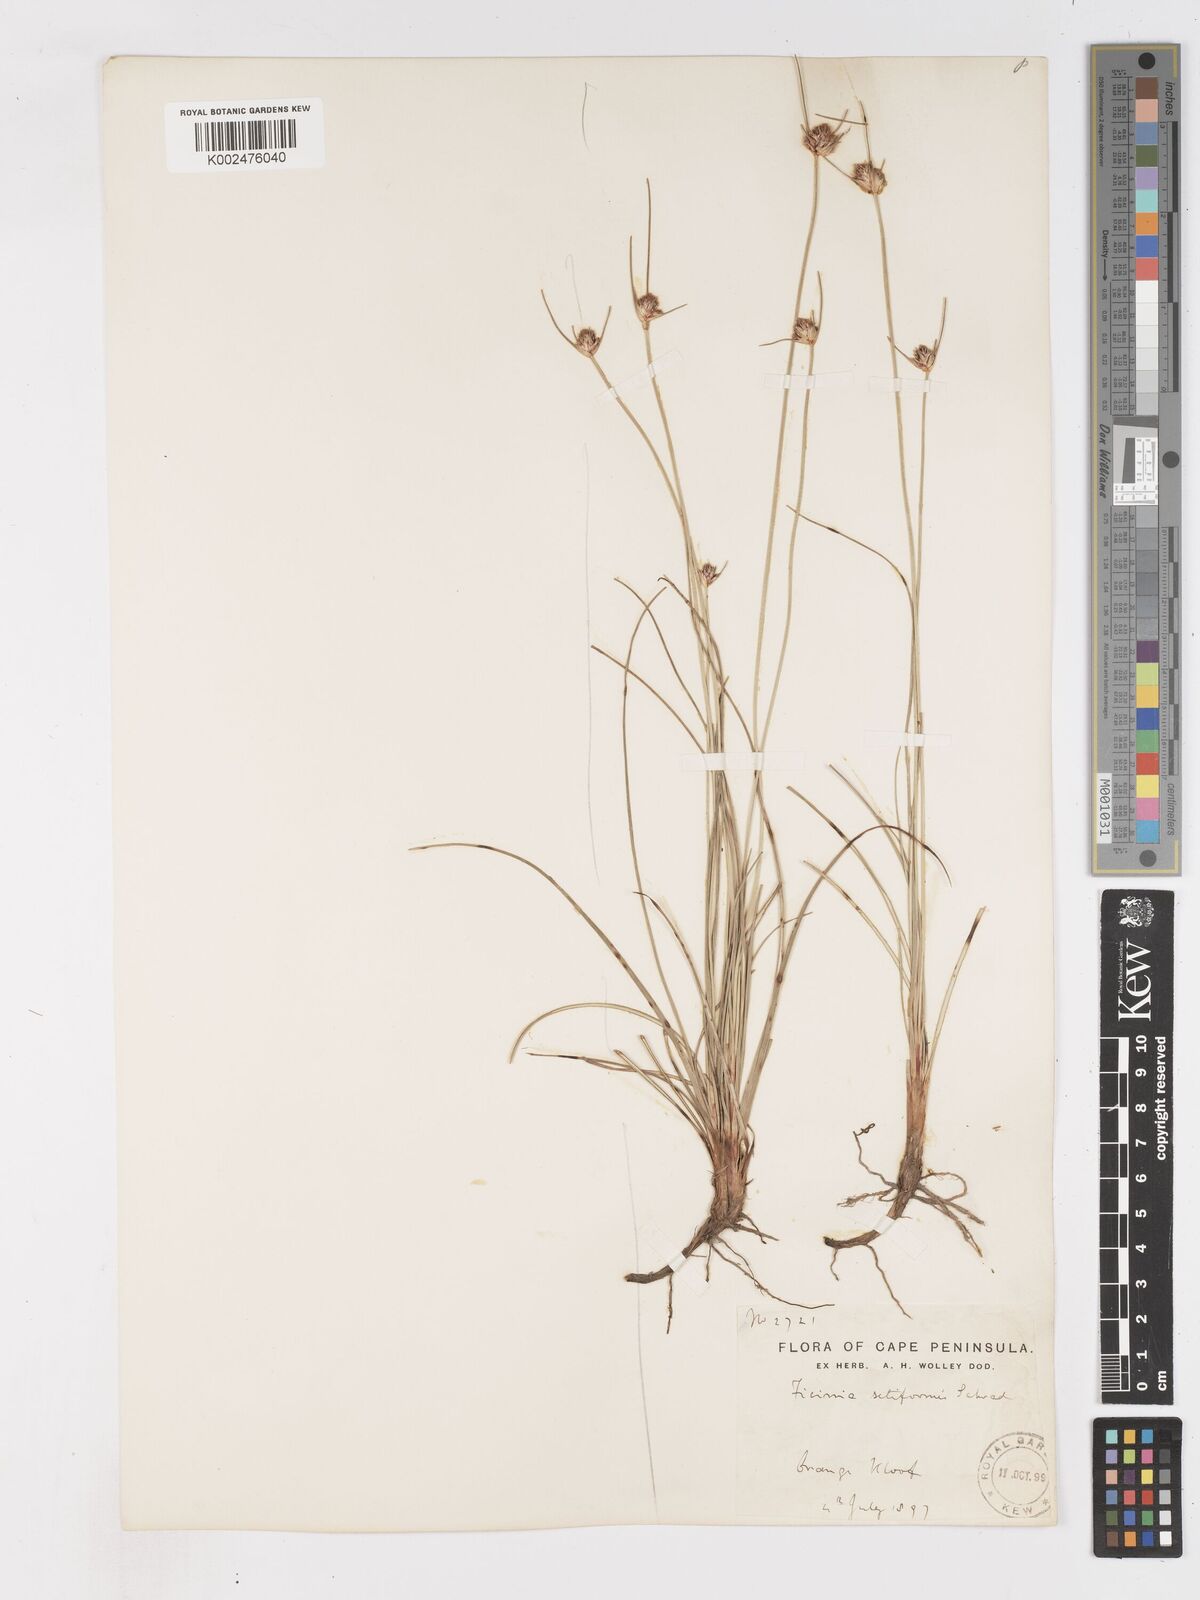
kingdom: Plantae
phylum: Tracheophyta
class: Liliopsida
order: Poales
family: Cyperaceae
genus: Ficinia
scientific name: Ficinia indica
